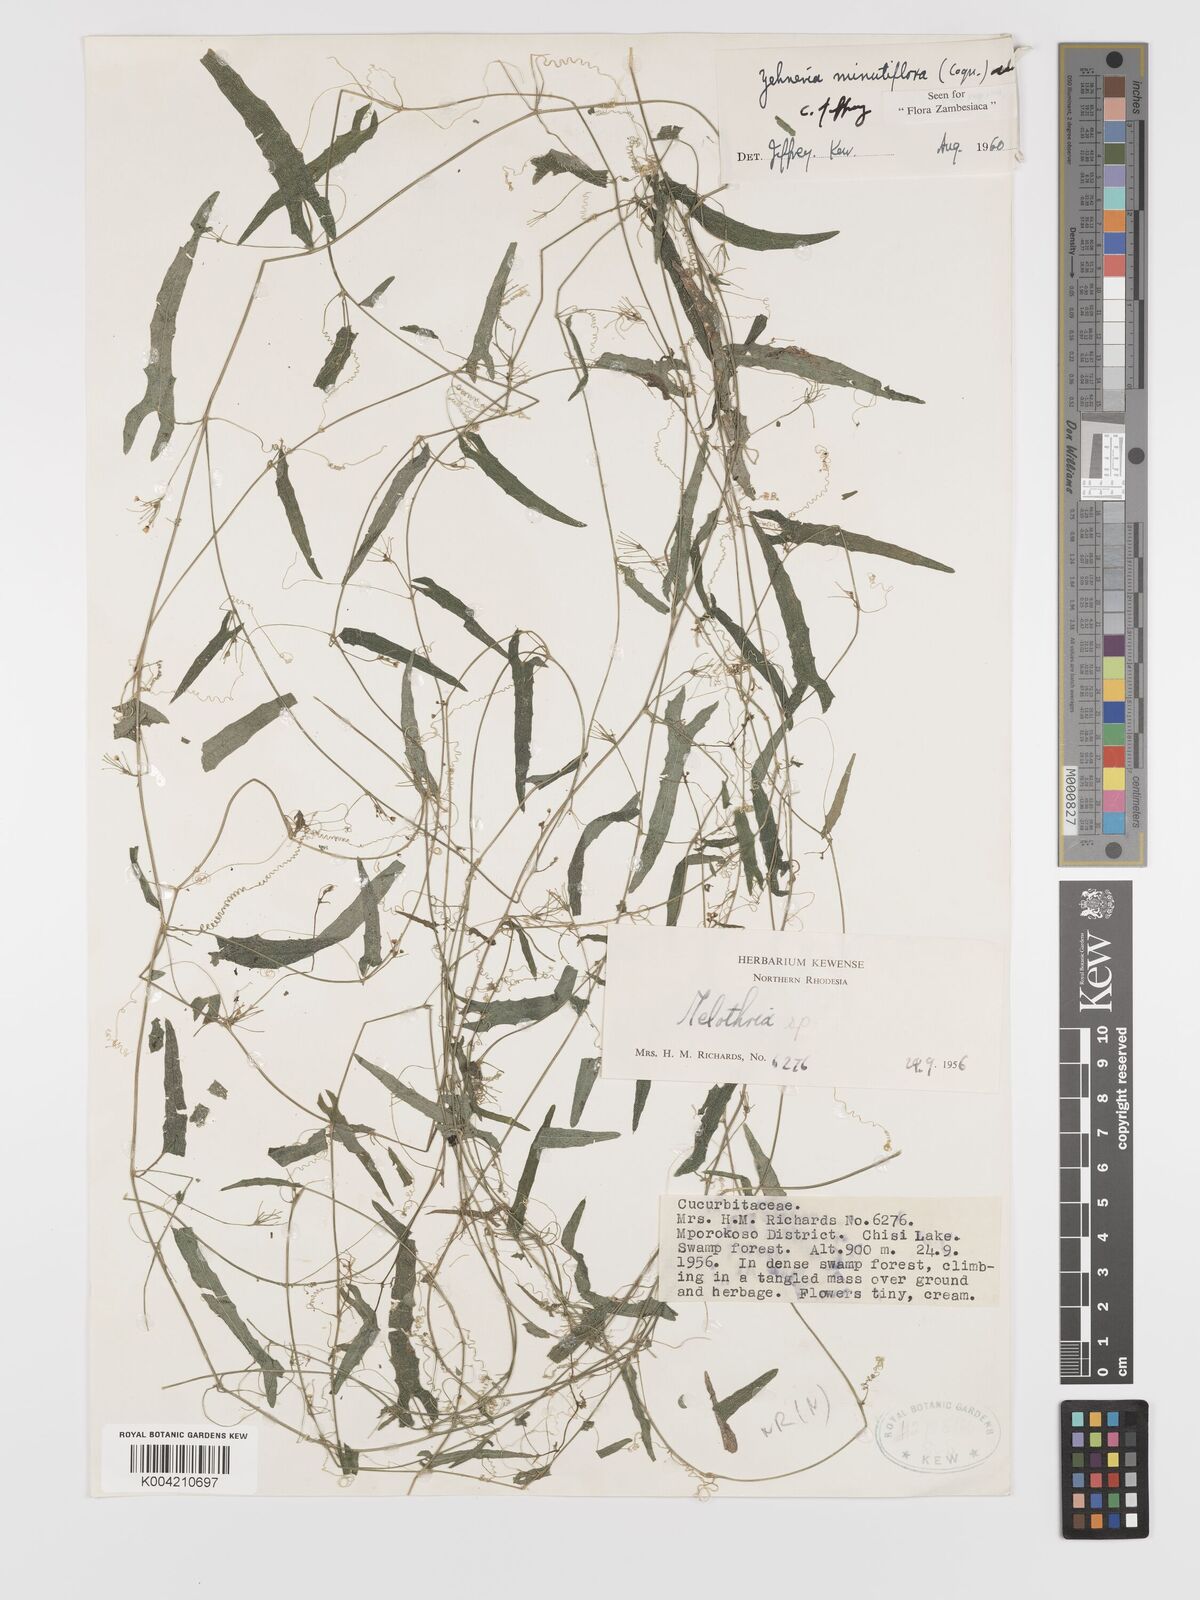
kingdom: Plantae
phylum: Tracheophyta
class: Magnoliopsida
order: Cucurbitales
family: Cucurbitaceae
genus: Zehneria
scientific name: Zehneria minutiflora
